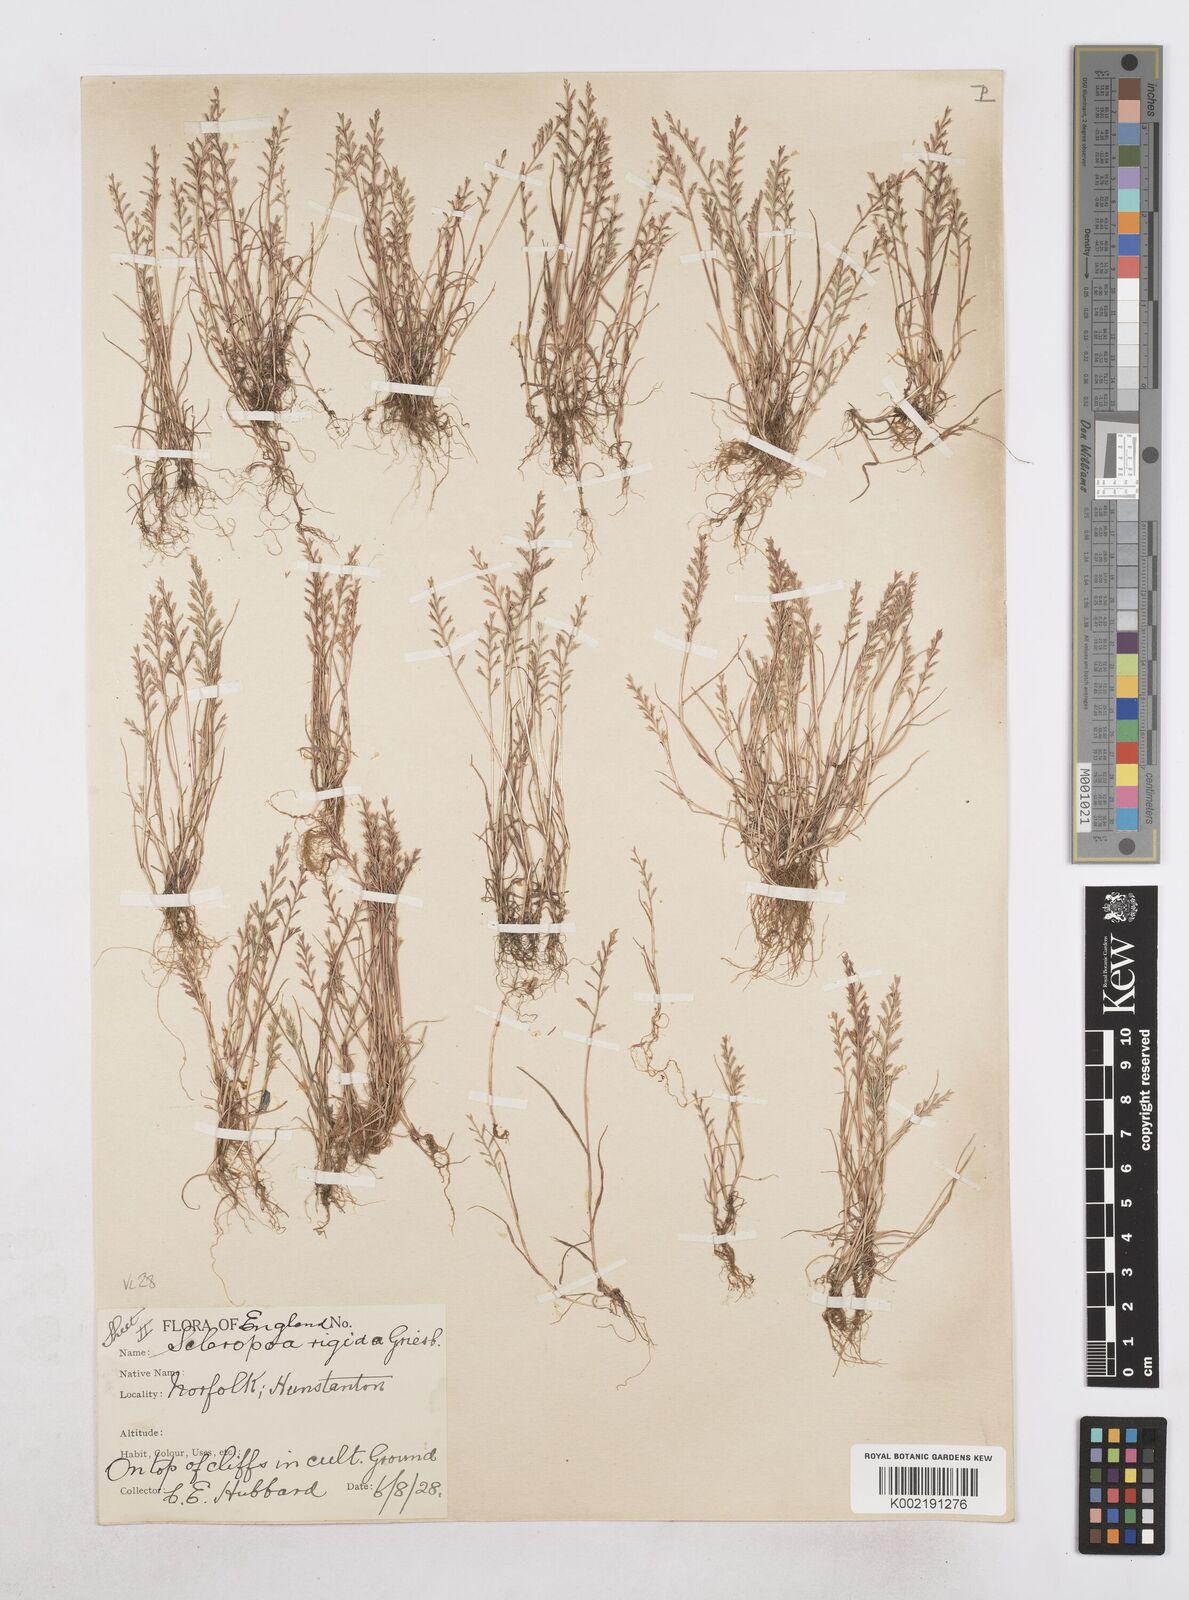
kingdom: Plantae
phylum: Tracheophyta
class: Liliopsida
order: Poales
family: Poaceae
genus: Catapodium
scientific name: Catapodium rigidum
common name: Fern-grass
